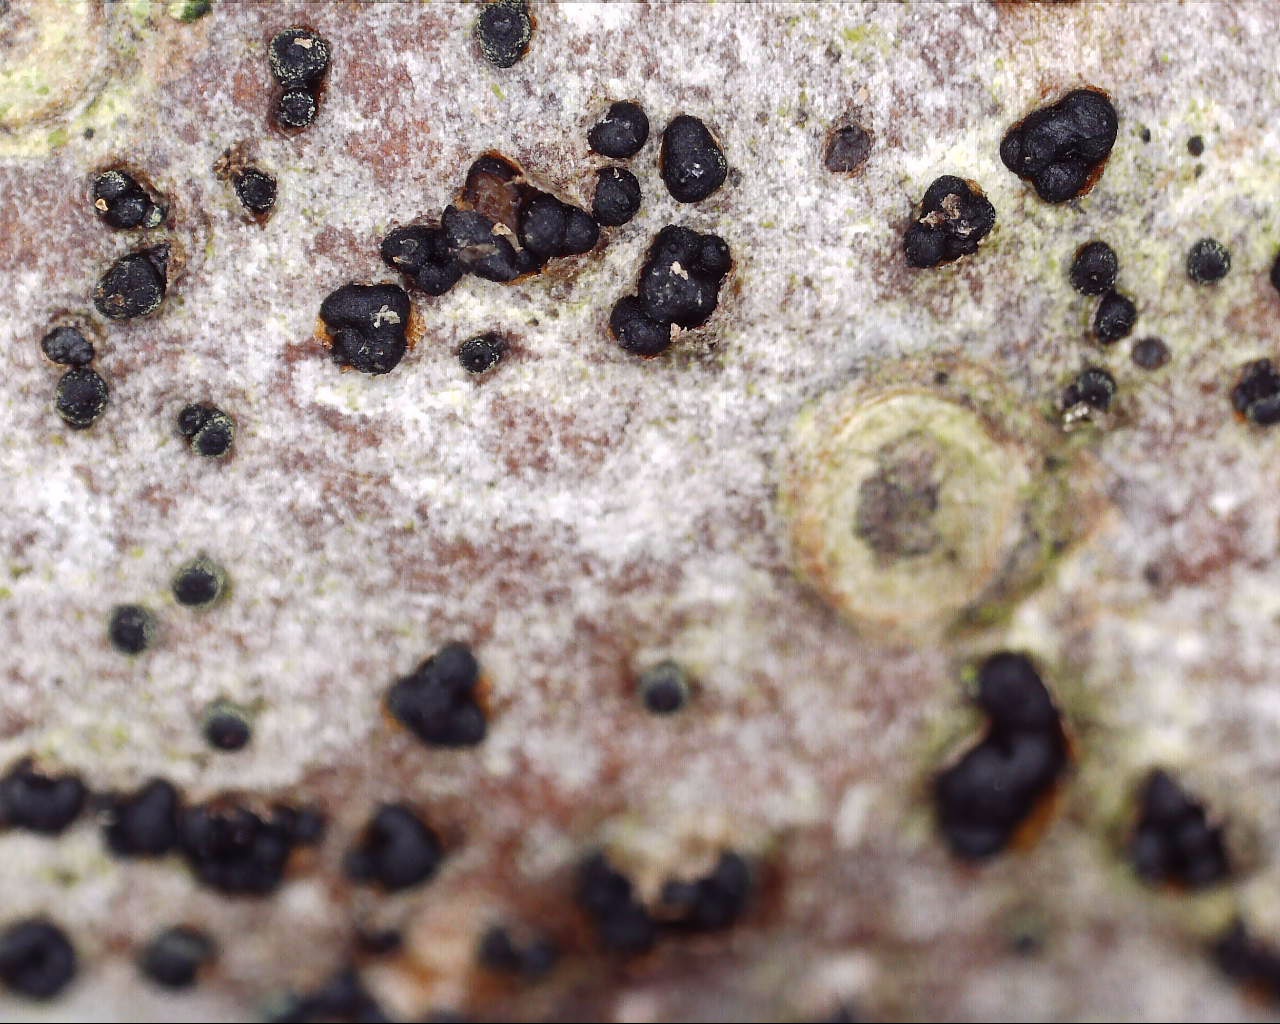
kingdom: Fungi
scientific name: Fungi
